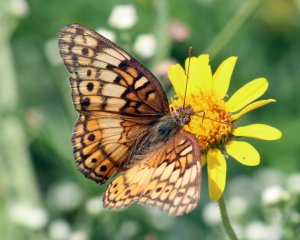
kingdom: Animalia
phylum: Arthropoda
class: Insecta
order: Lepidoptera
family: Nymphalidae
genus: Euptoieta
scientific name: Euptoieta claudia
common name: Variegated Fritillary
